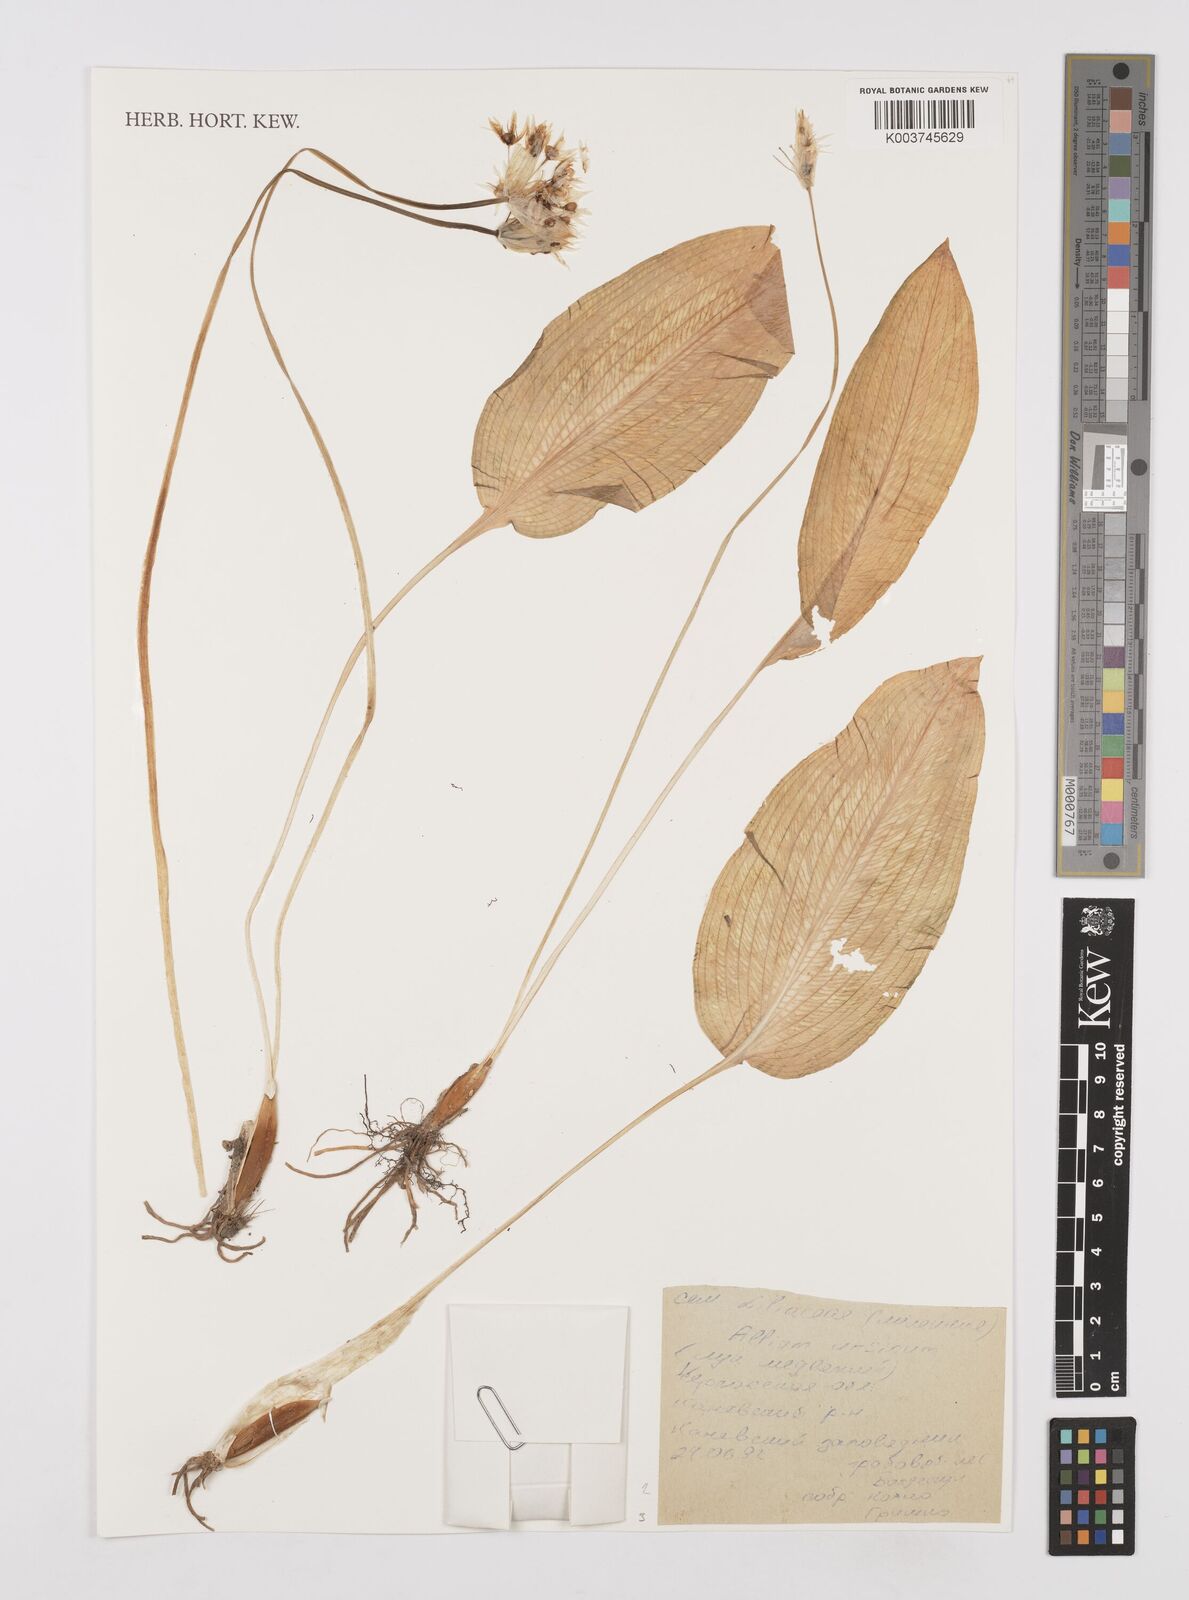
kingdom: Plantae
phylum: Tracheophyta
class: Liliopsida
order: Asparagales
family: Amaryllidaceae
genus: Allium
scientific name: Allium ursinum
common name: Ramsons
